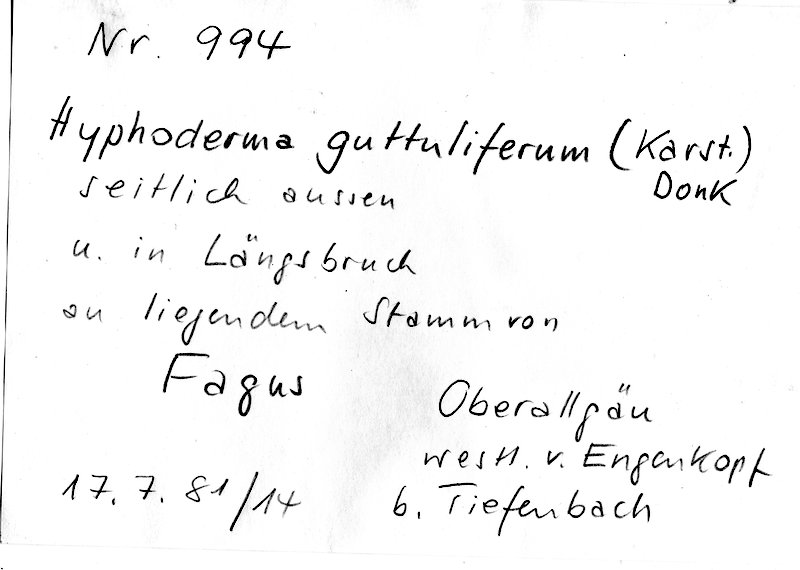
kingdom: Plantae
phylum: Tracheophyta
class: Magnoliopsida
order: Fagales
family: Fagaceae
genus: Fagus
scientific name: Fagus sylvatica
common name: Beech
